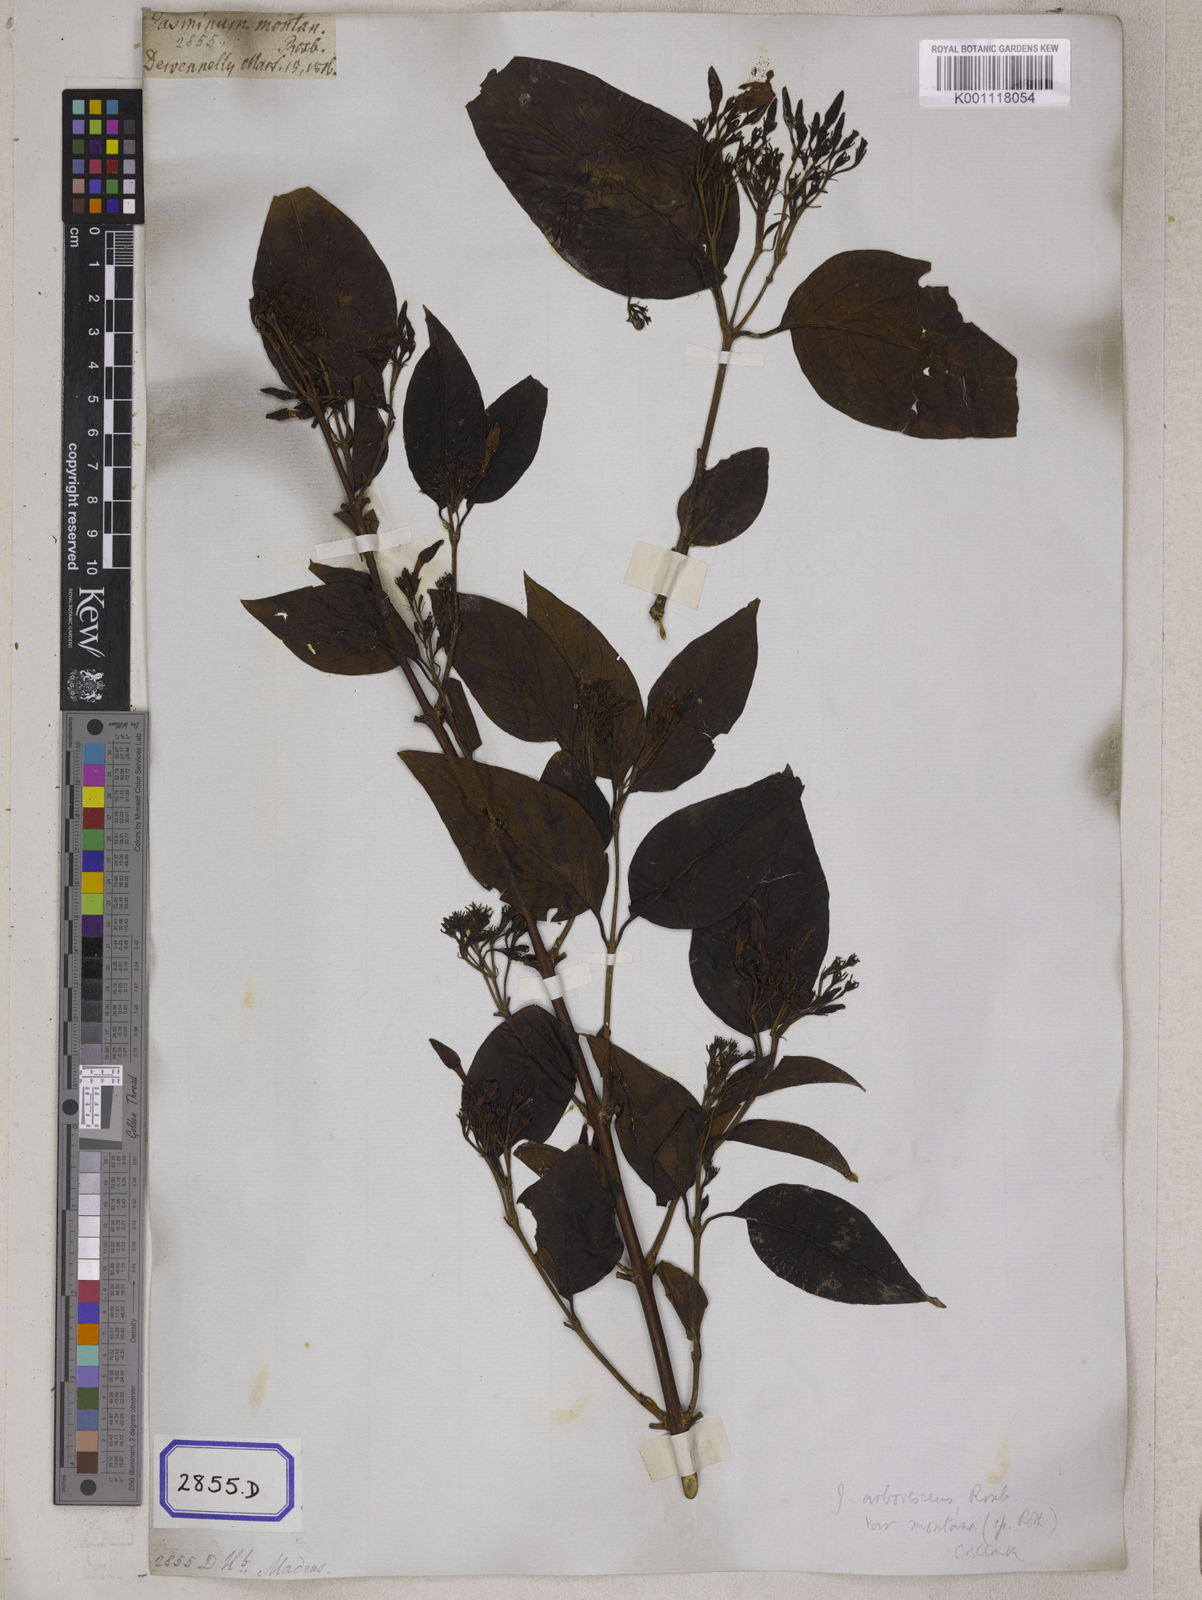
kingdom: Plantae
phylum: Tracheophyta
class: Magnoliopsida
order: Lamiales
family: Oleaceae
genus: Jasminum
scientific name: Jasminum arborescens
